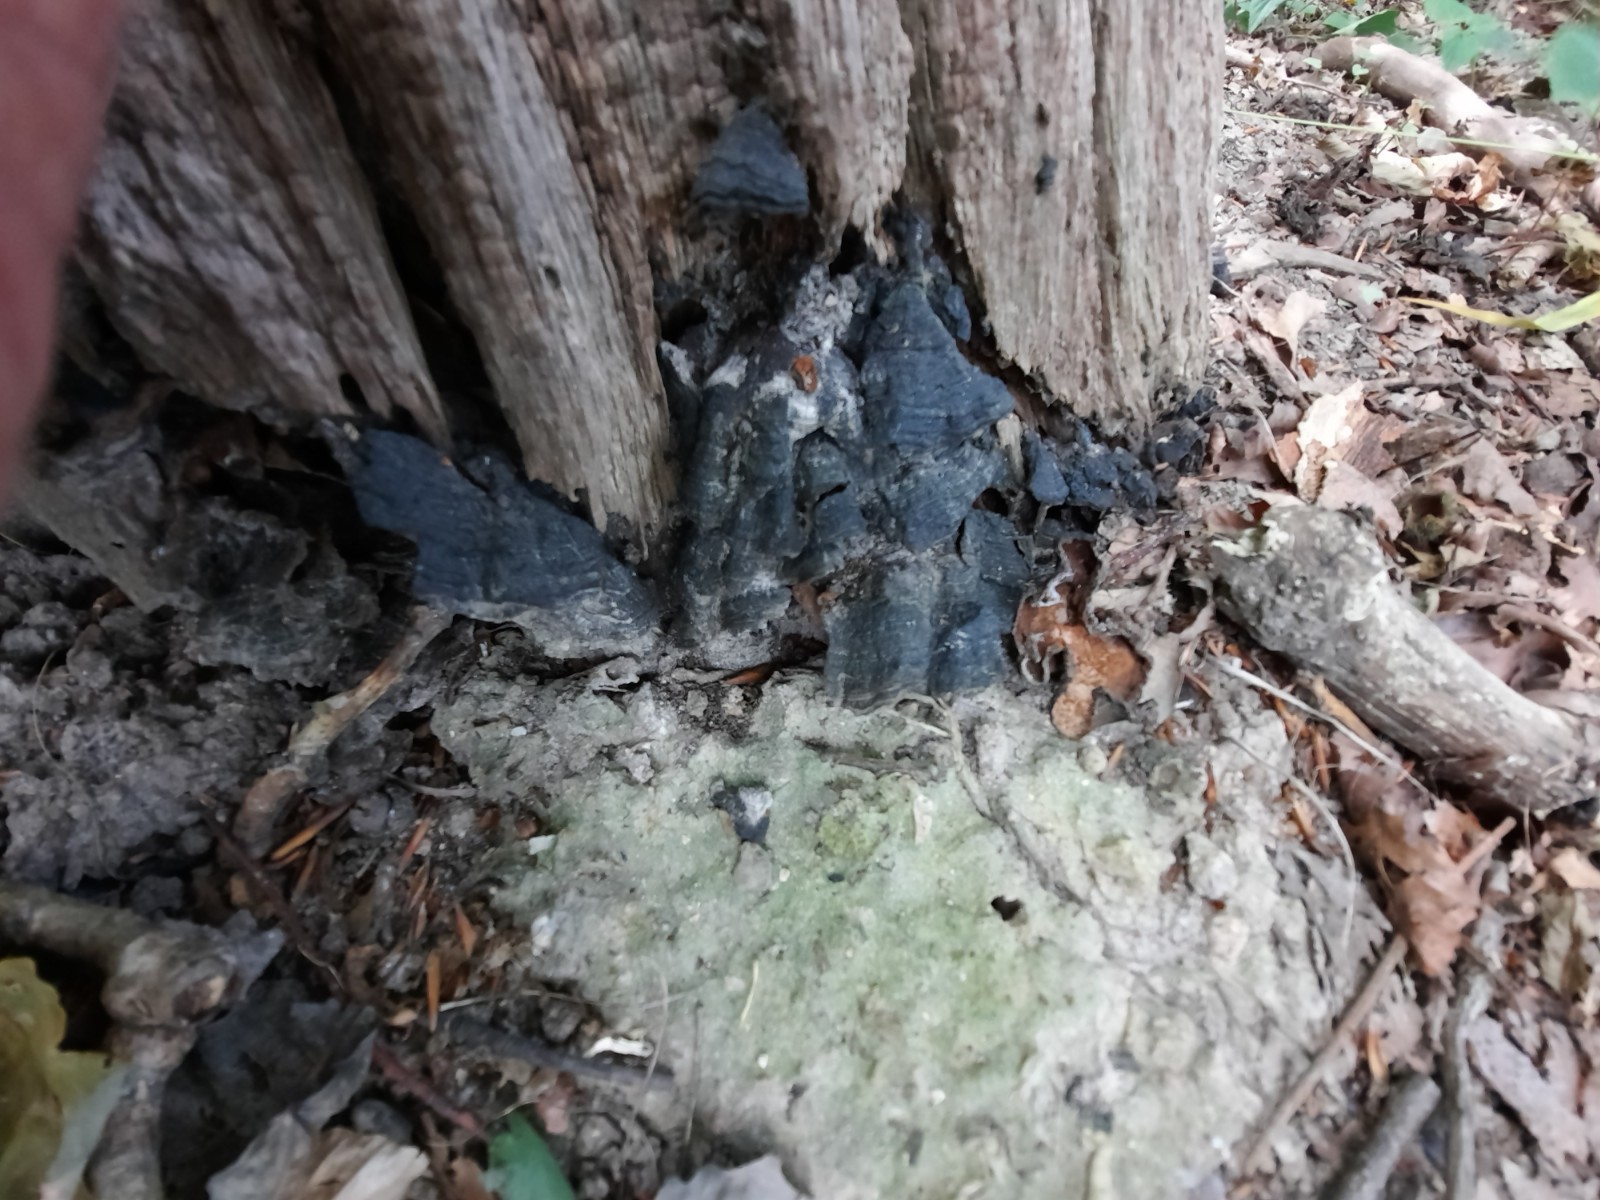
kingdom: Fungi
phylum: Basidiomycota
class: Agaricomycetes
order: Hymenochaetales
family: Hymenochaetaceae
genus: Hymenochaete
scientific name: Hymenochaete rubiginosa
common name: stiv ruslædersvamp
